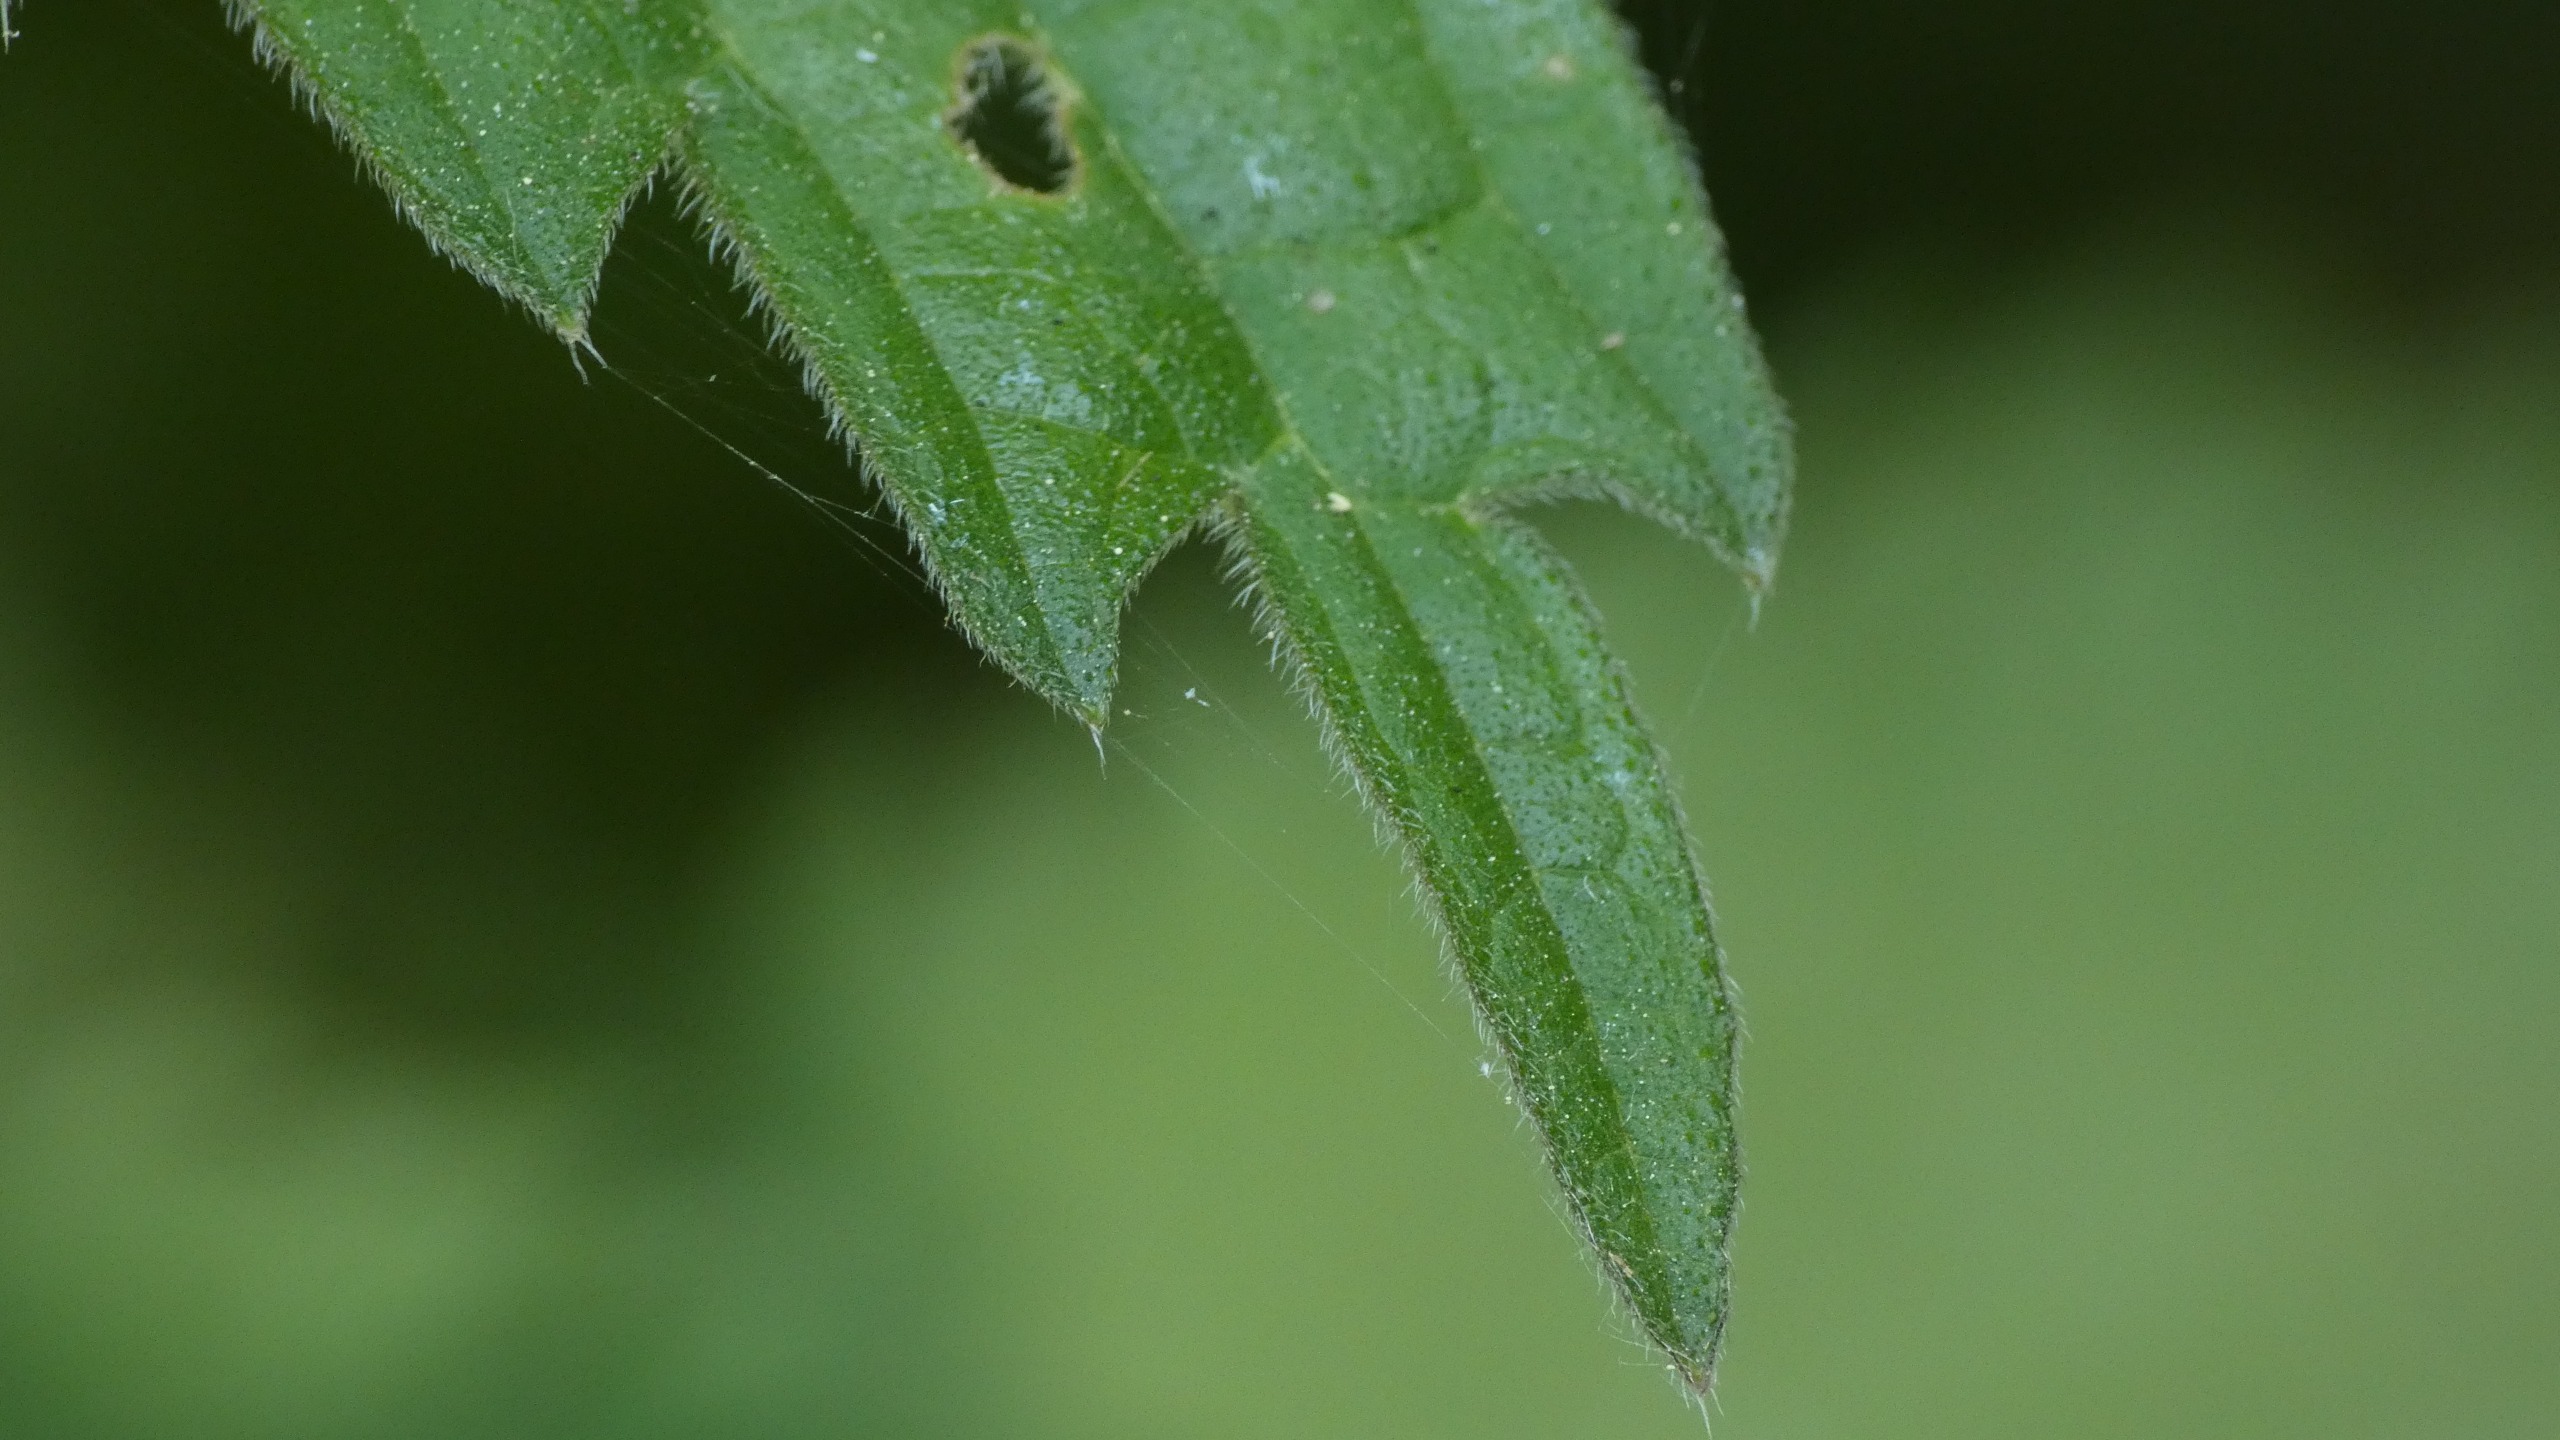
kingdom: Plantae
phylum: Tracheophyta
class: Magnoliopsida
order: Rosales
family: Urticaceae
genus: Urtica
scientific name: Urtica dioica
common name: Stor nælde
